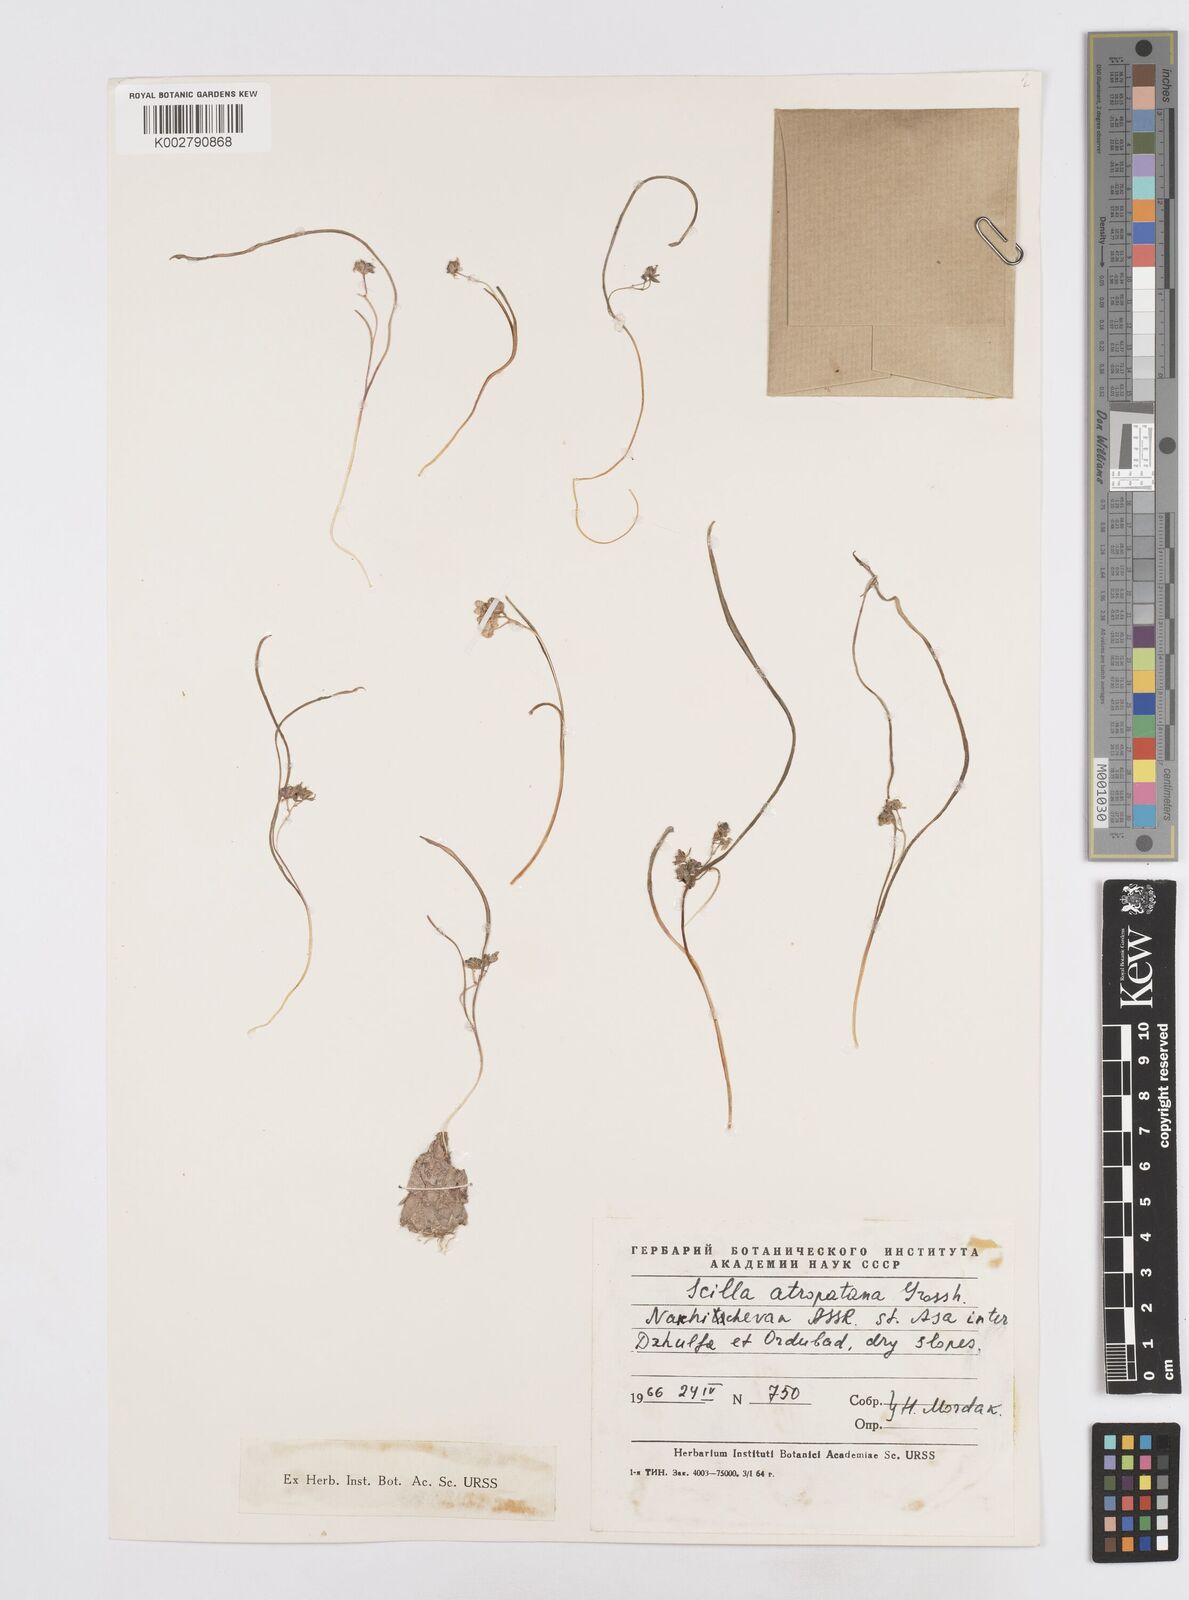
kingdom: Plantae
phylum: Tracheophyta
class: Liliopsida
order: Asparagales
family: Asparagaceae
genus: Hyacinthella
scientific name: Hyacinthella atropatana
